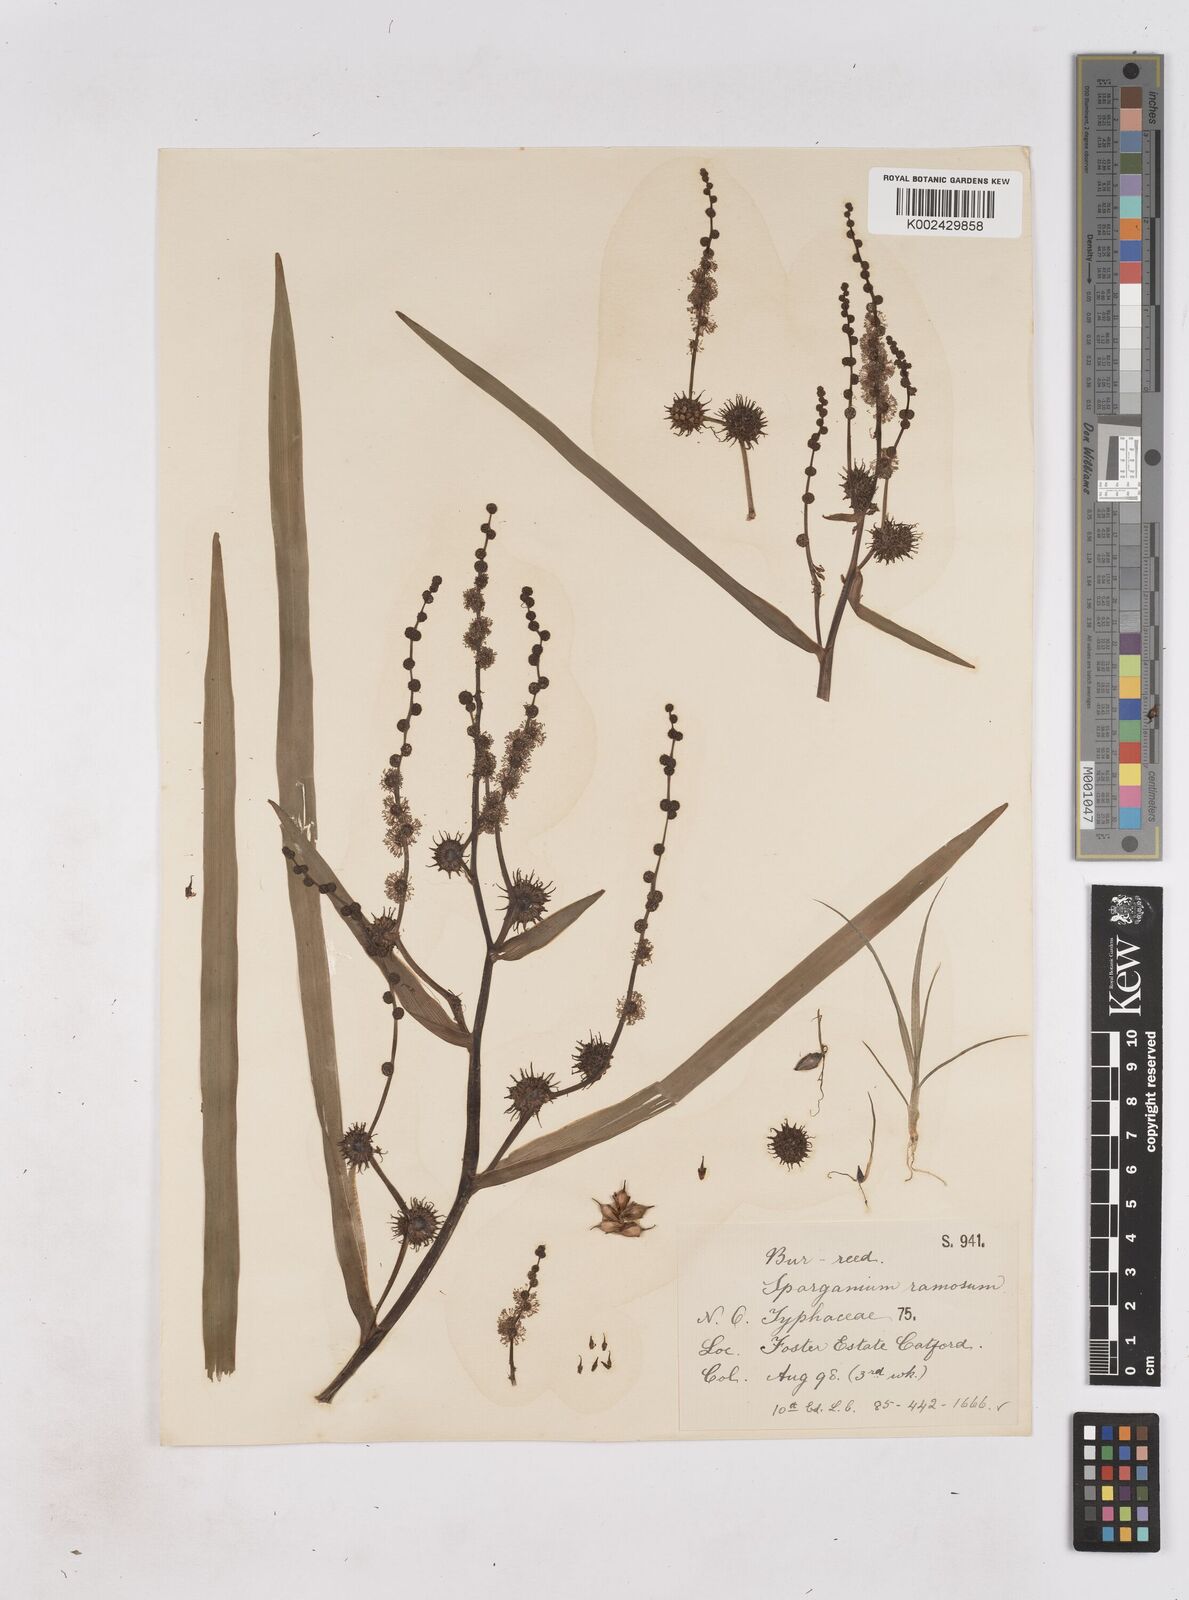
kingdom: Plantae
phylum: Tracheophyta
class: Liliopsida
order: Poales
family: Typhaceae
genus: Sparganium
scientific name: Sparganium erectum
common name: Branched bur-reed
